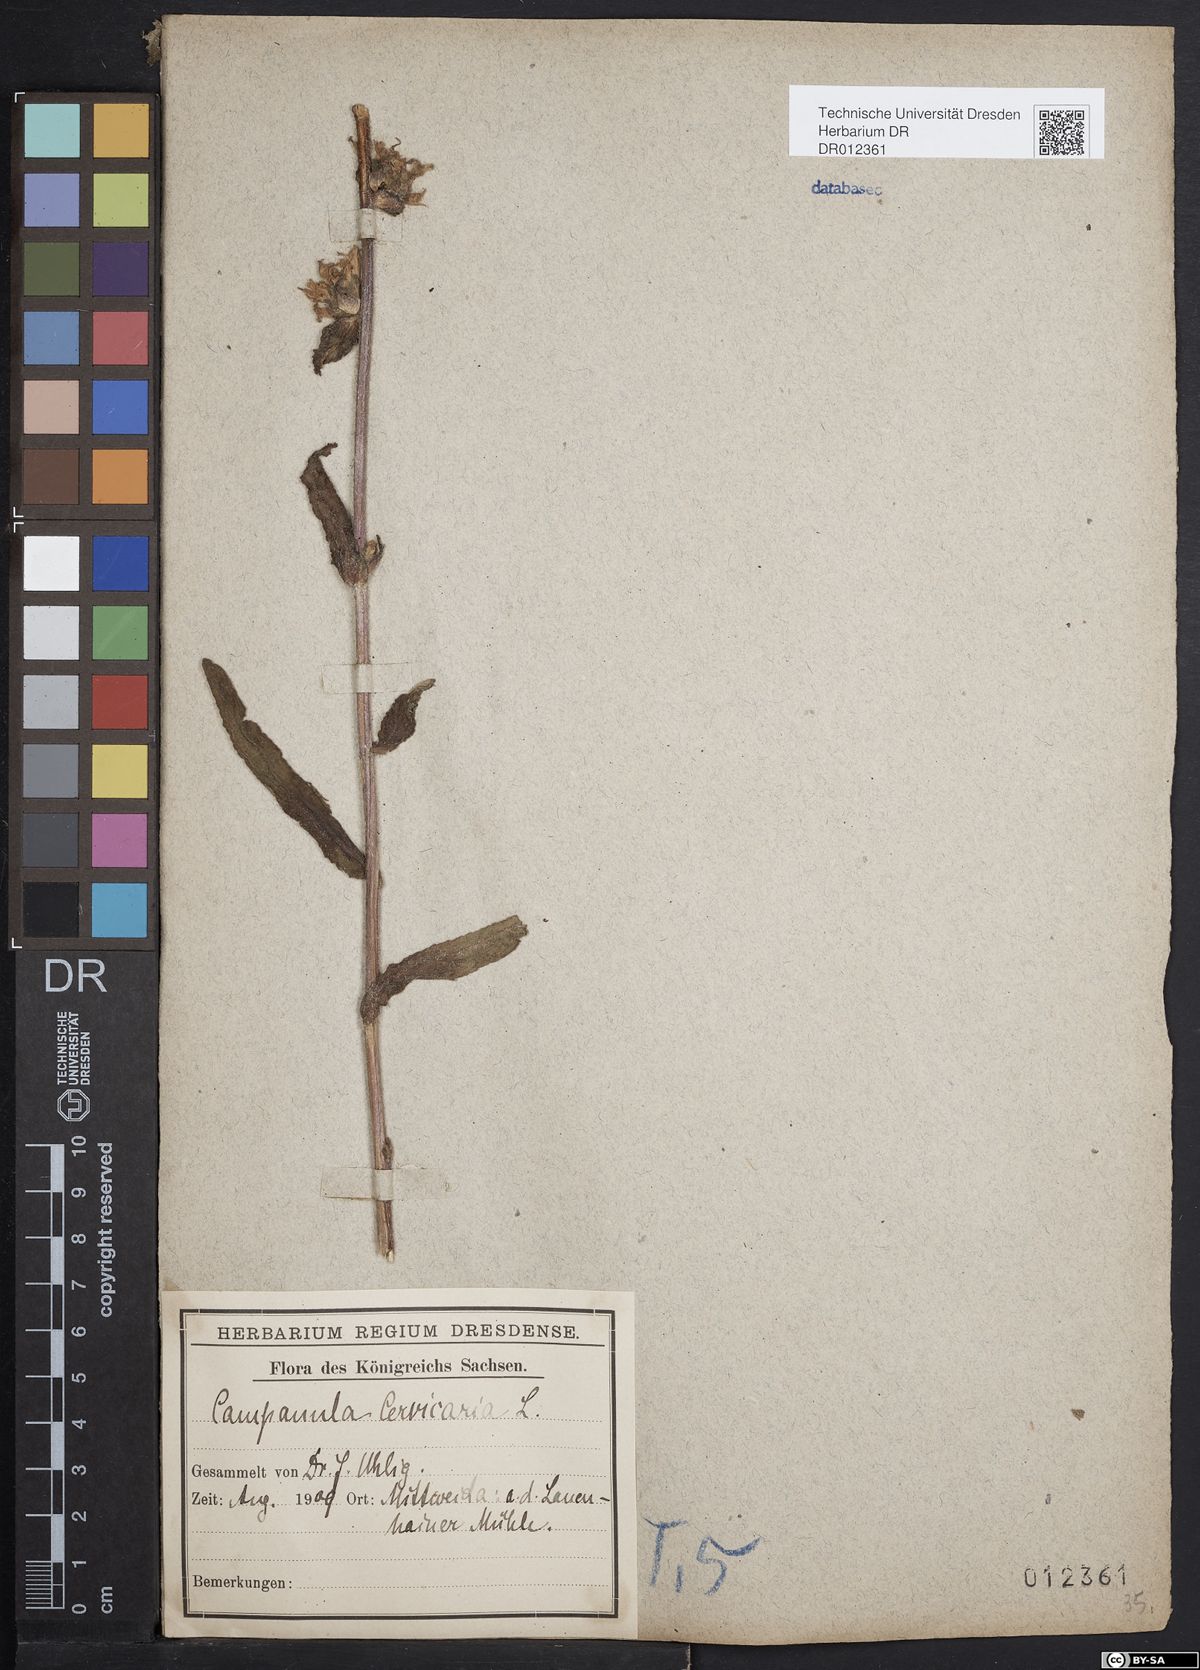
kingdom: Plantae
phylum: Tracheophyta
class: Magnoliopsida
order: Asterales
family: Campanulaceae
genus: Campanula
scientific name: Campanula cervicaria
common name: Bristly bellflower
